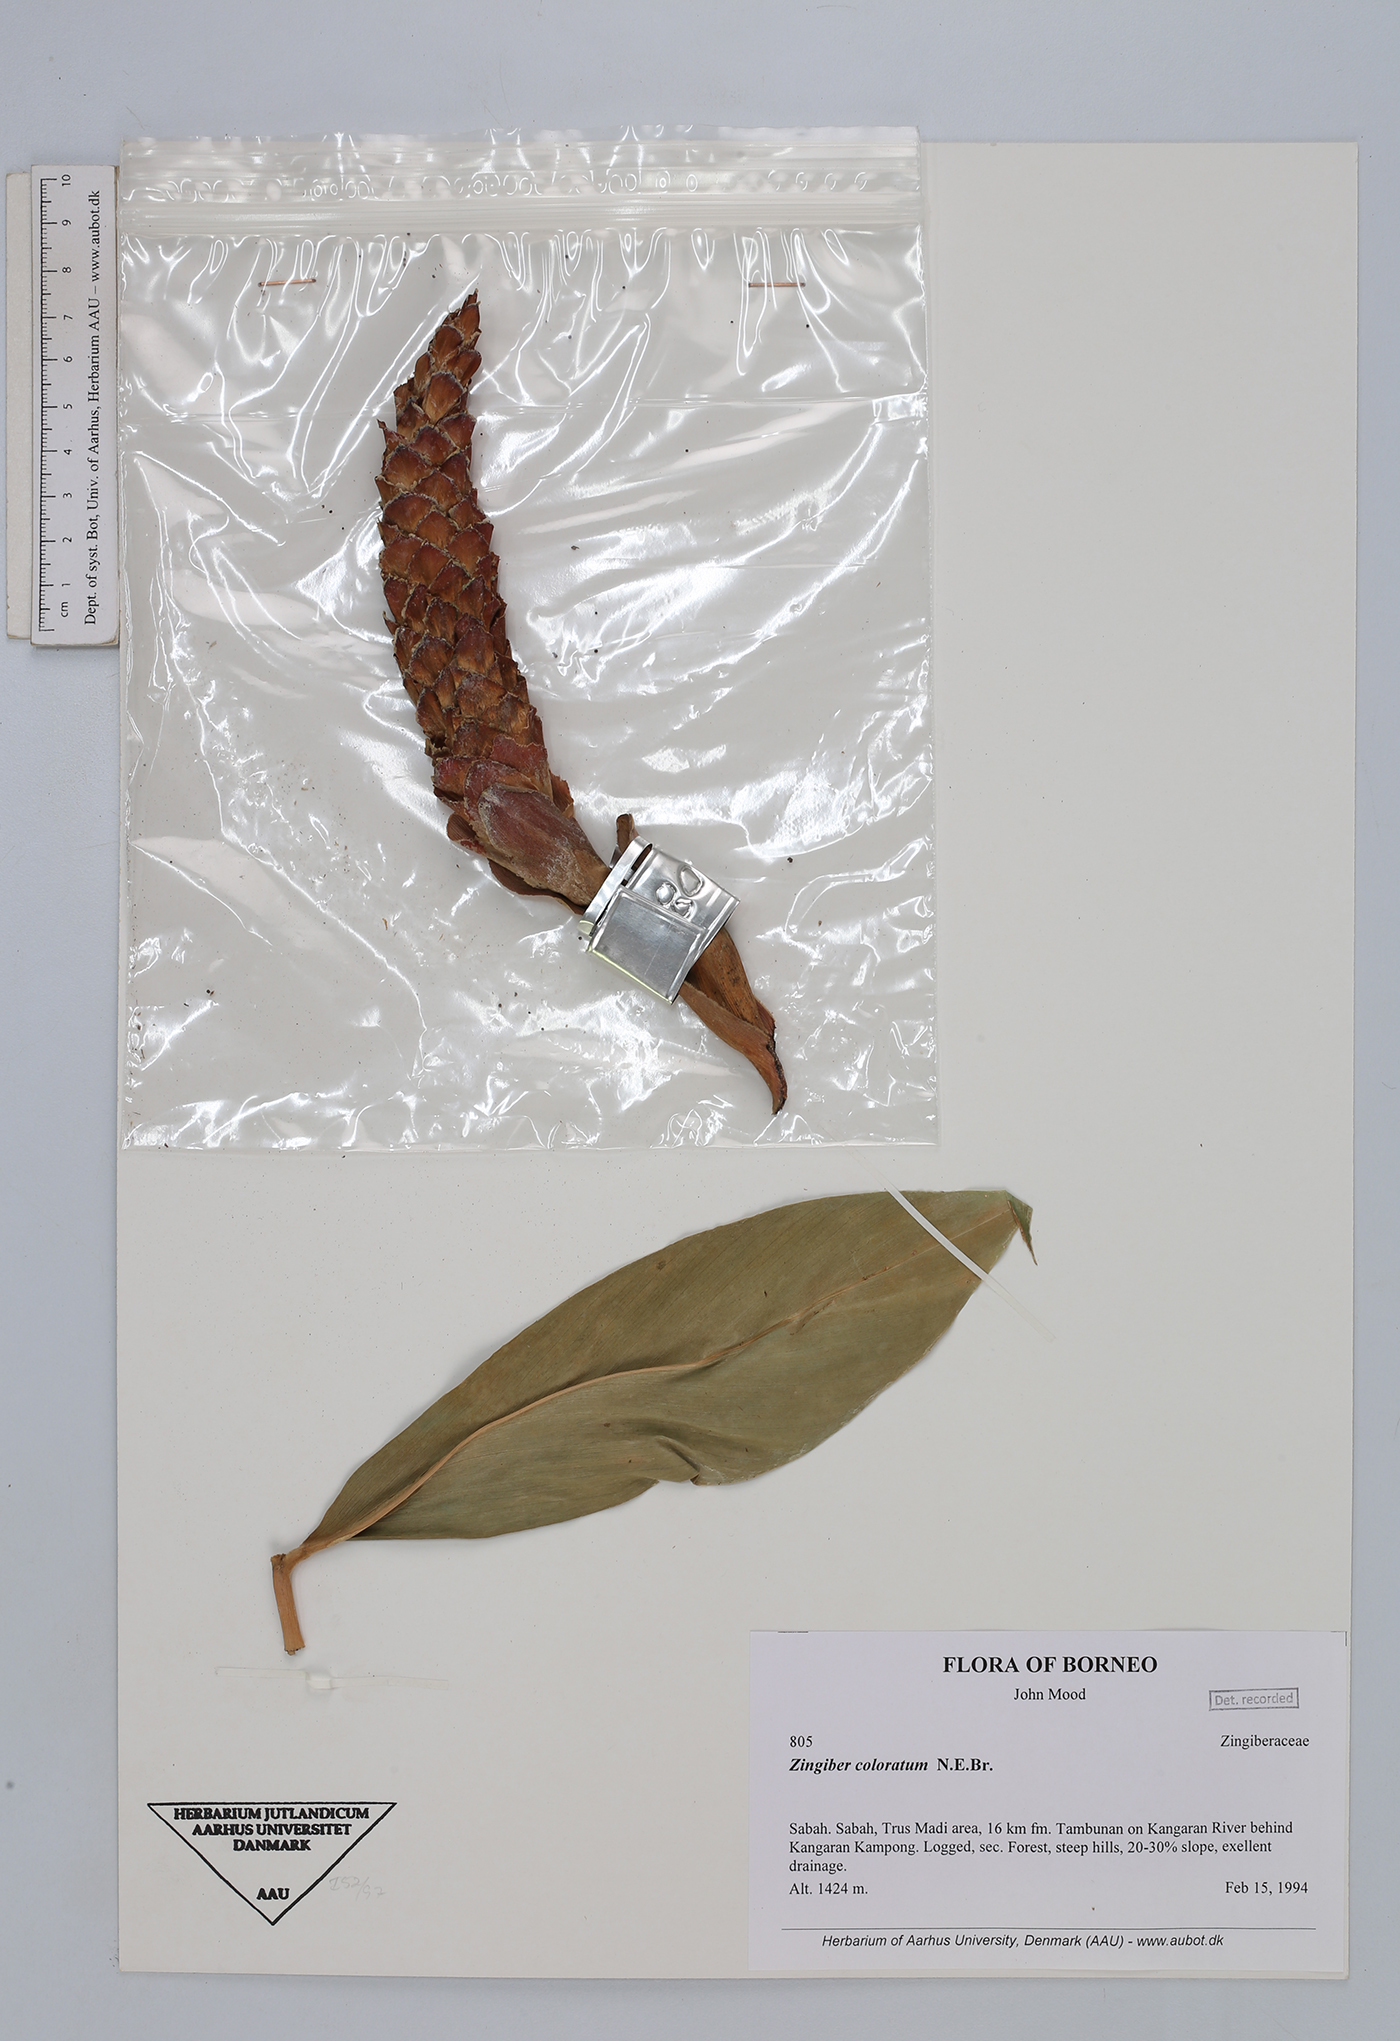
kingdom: Plantae
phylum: Tracheophyta
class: Liliopsida
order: Zingiberales
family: Zingiberaceae
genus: Zingiber
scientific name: Zingiber coloratum
